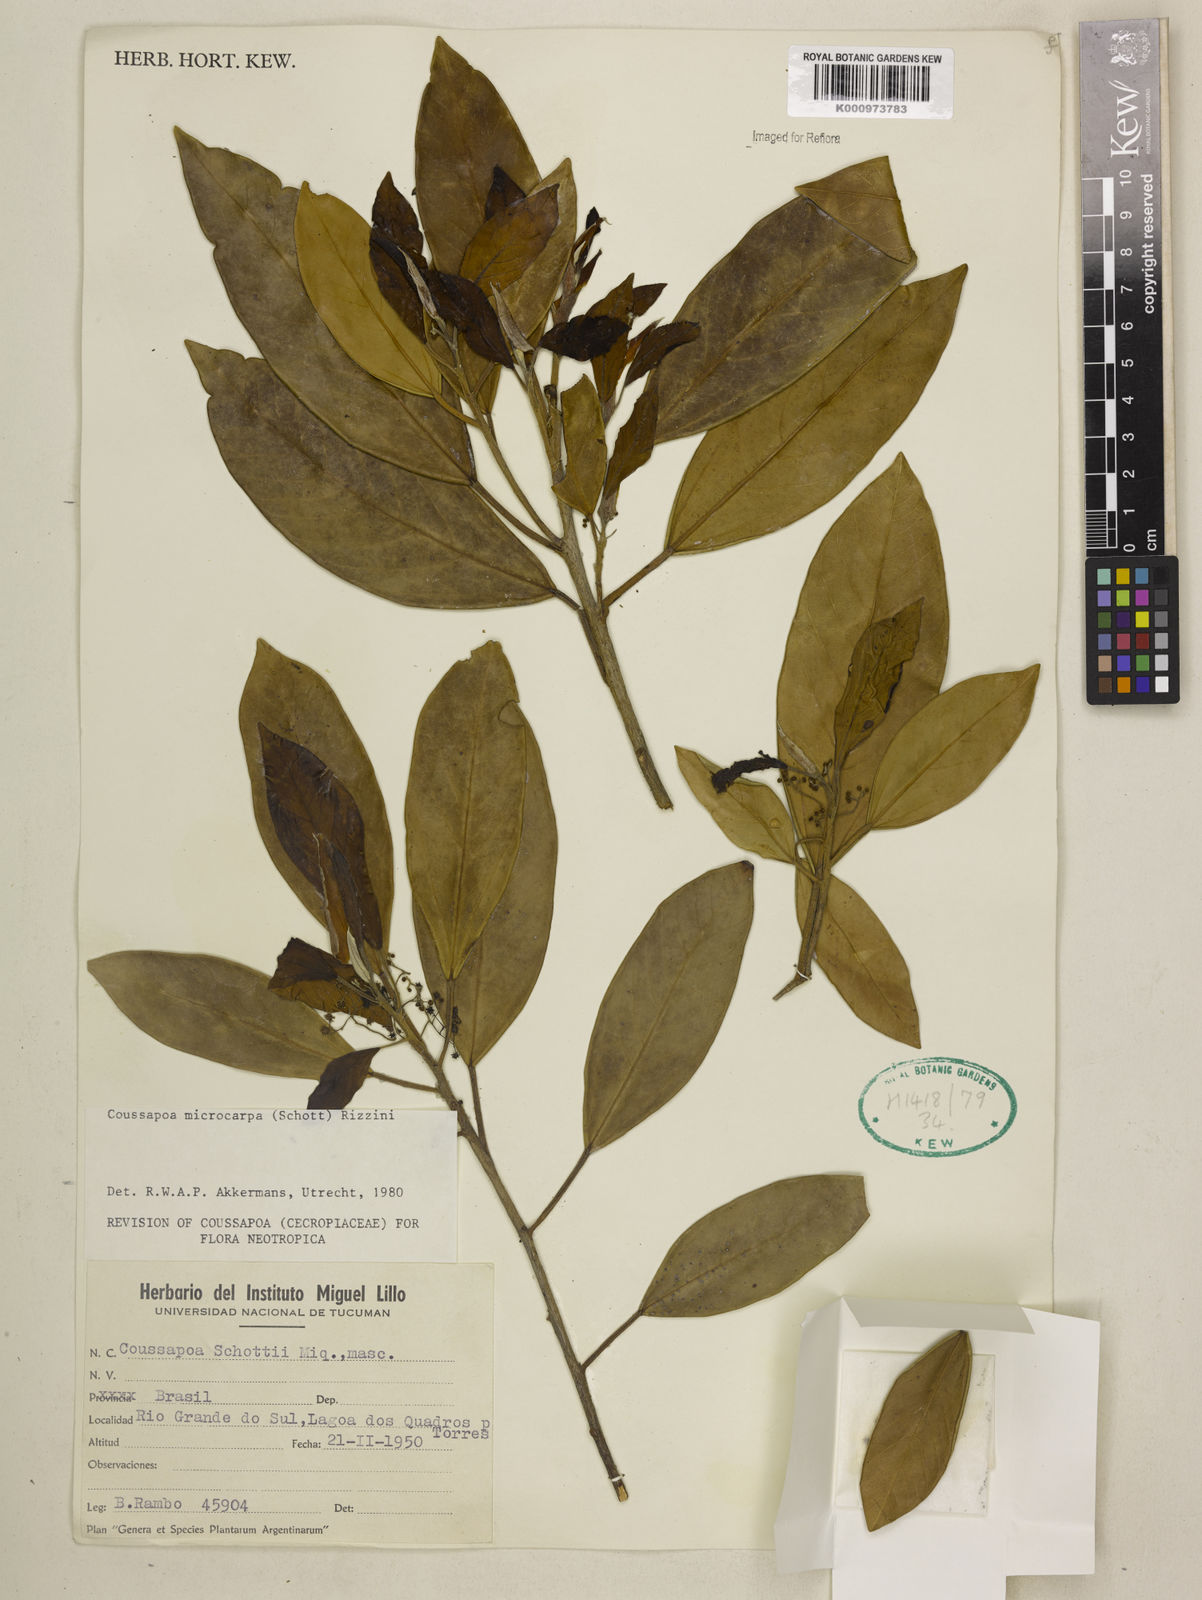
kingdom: Plantae
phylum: Tracheophyta
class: Magnoliopsida
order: Rosales
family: Urticaceae
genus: Coussapoa
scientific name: Coussapoa microcarpa
